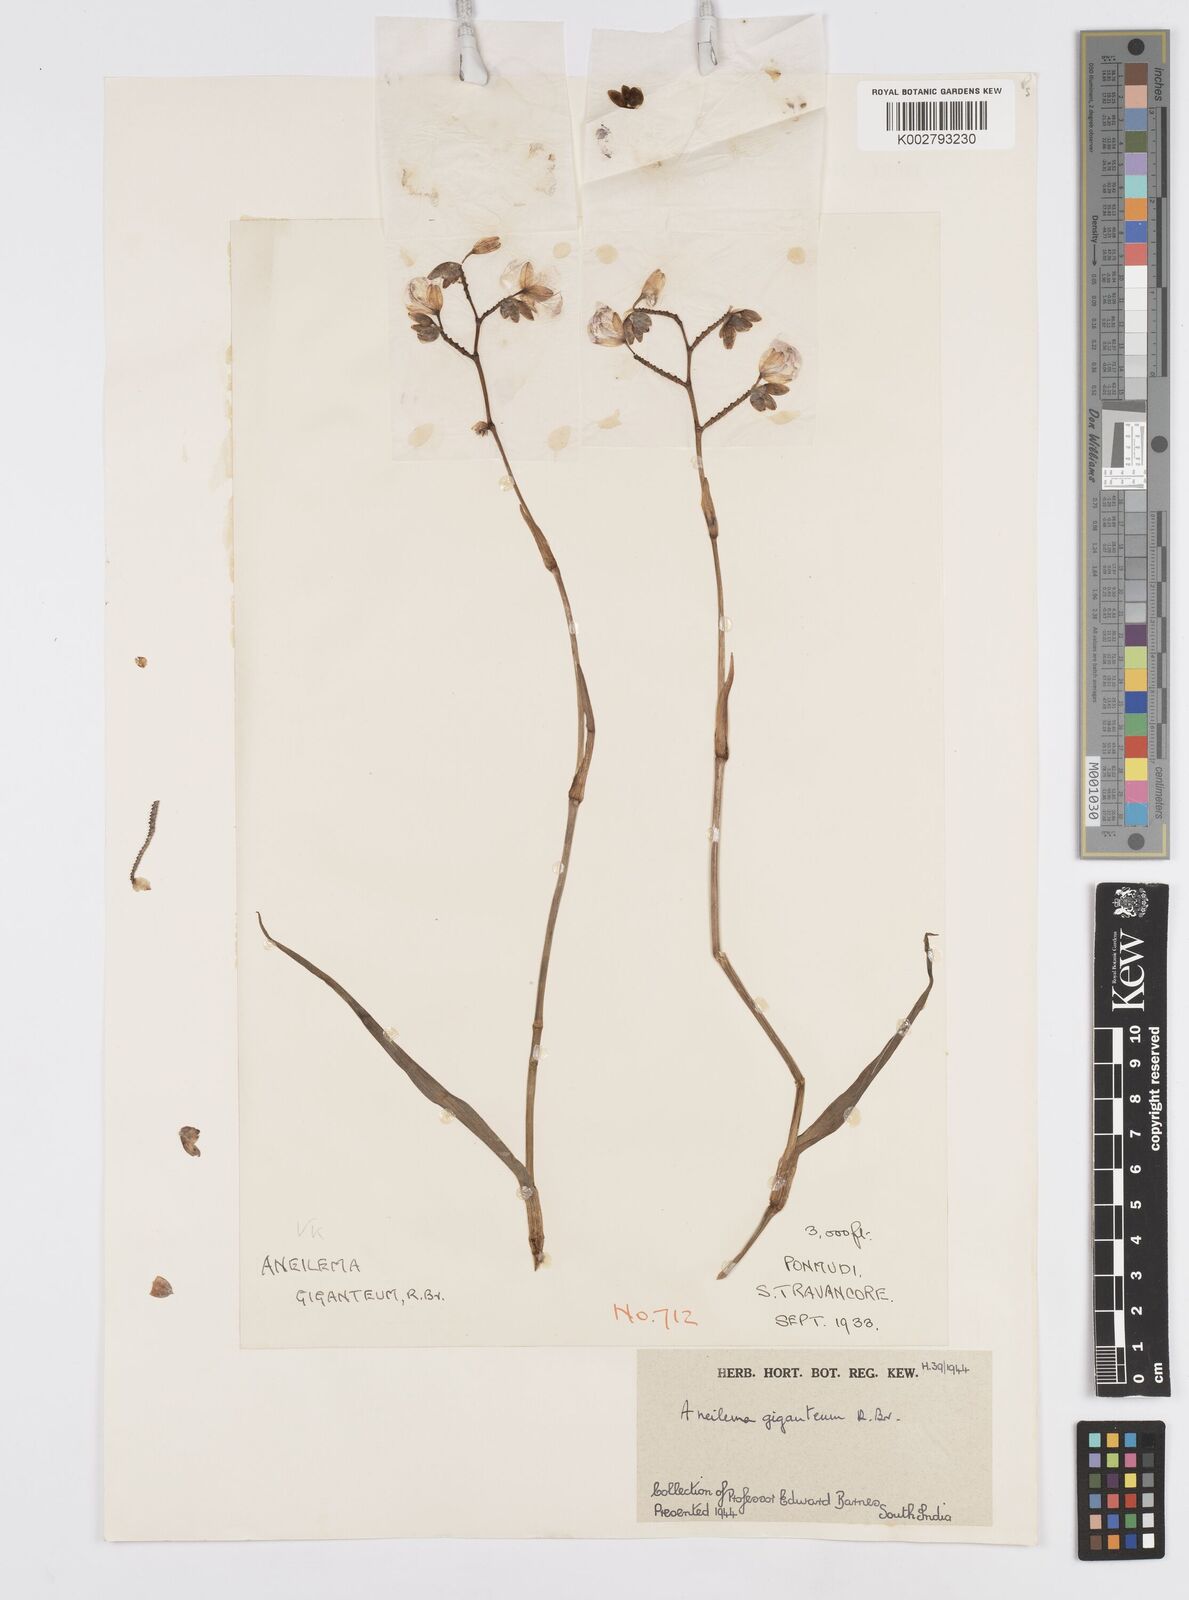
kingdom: Plantae
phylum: Tracheophyta
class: Liliopsida
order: Commelinales
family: Commelinaceae
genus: Murdannia
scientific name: Murdannia gigantea
